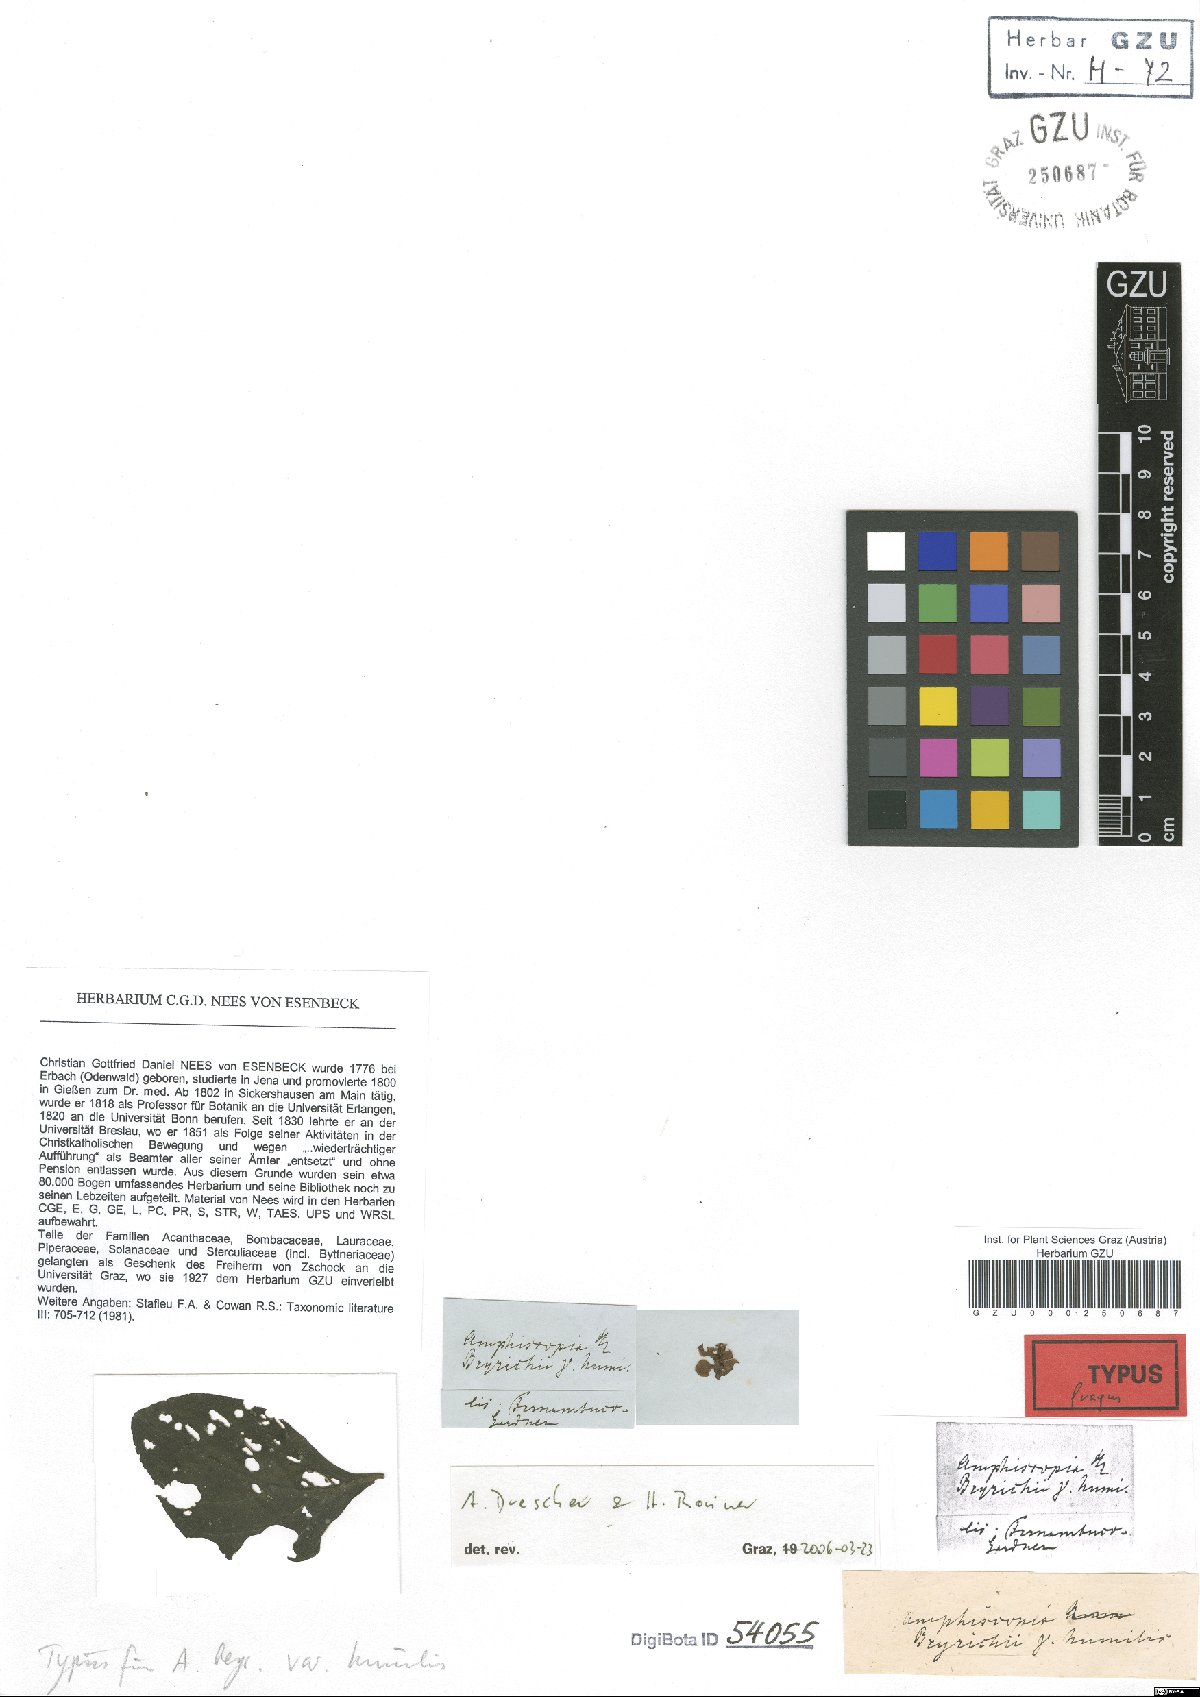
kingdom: Plantae
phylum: Tracheophyta
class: Magnoliopsida
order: Lamiales
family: Acanthaceae
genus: Dianthera
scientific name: Dianthera brasiliensis
